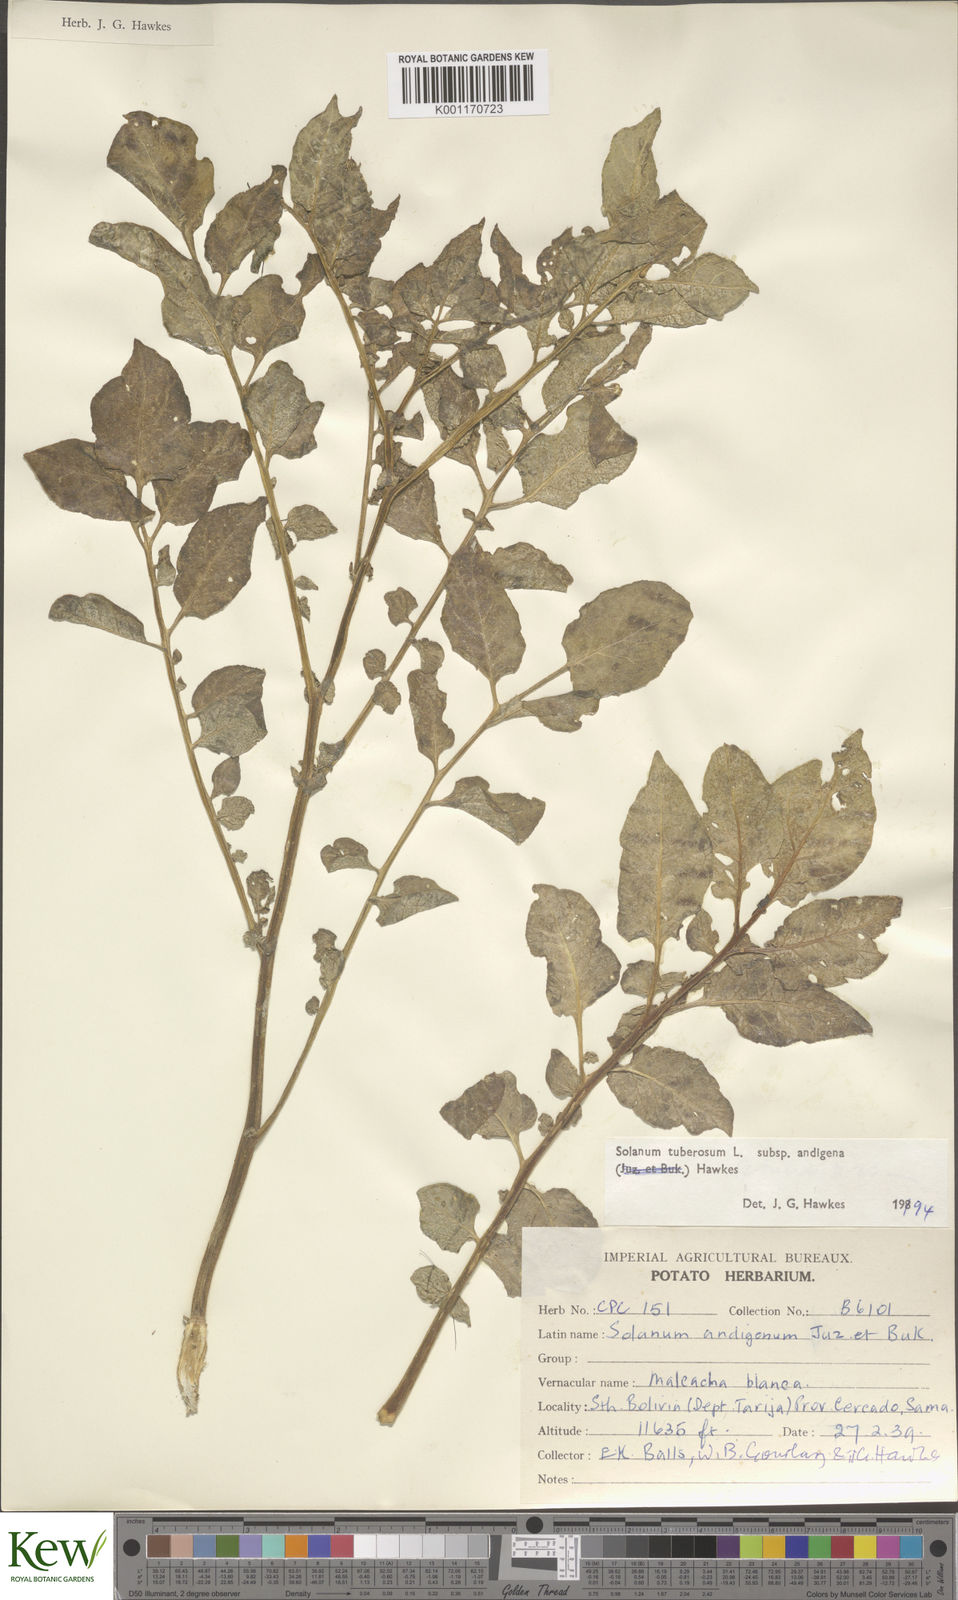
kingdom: Plantae
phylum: Tracheophyta
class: Magnoliopsida
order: Solanales
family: Solanaceae
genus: Solanum
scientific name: Solanum tuberosum
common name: Potato
